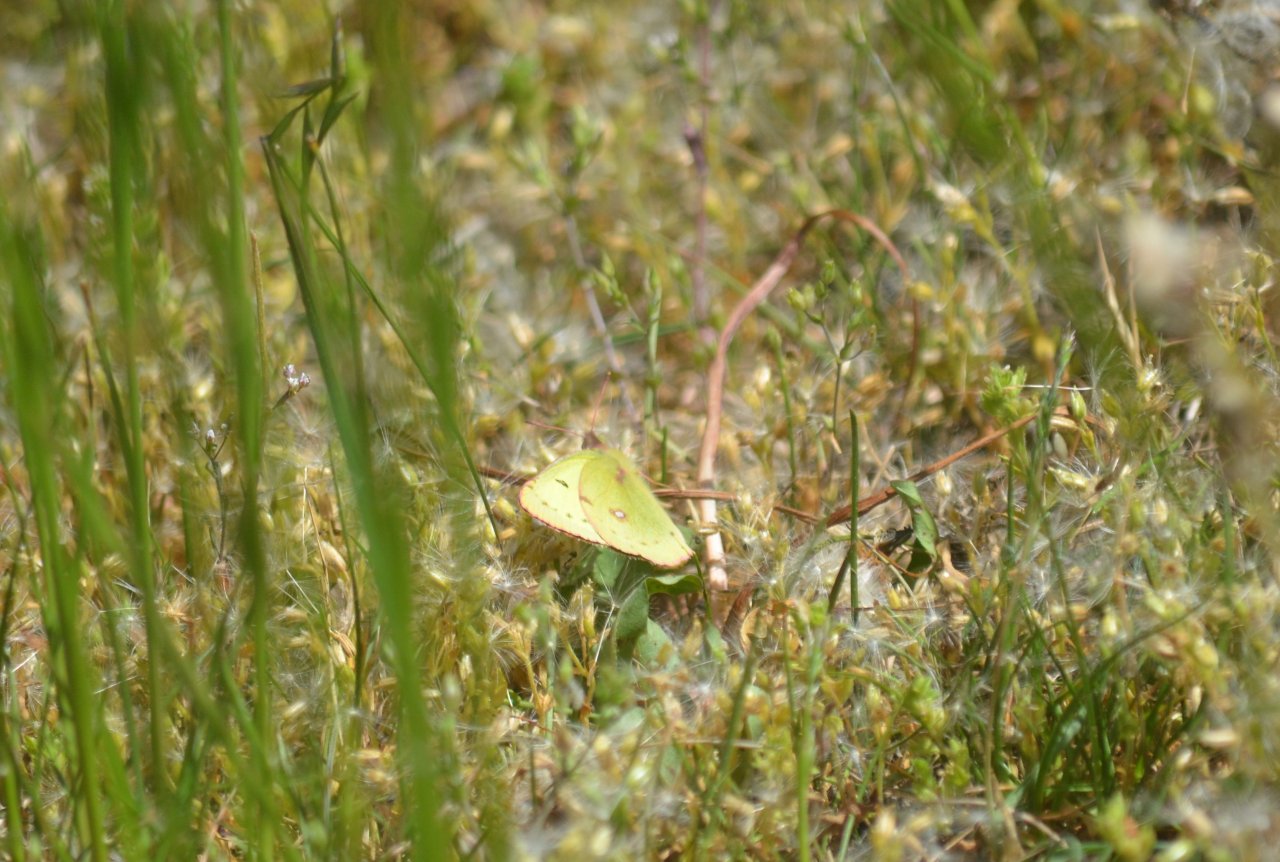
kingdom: Animalia
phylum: Arthropoda
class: Insecta
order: Lepidoptera
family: Pieridae
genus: Colias
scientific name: Colias philodice
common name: Clouded Sulphur
